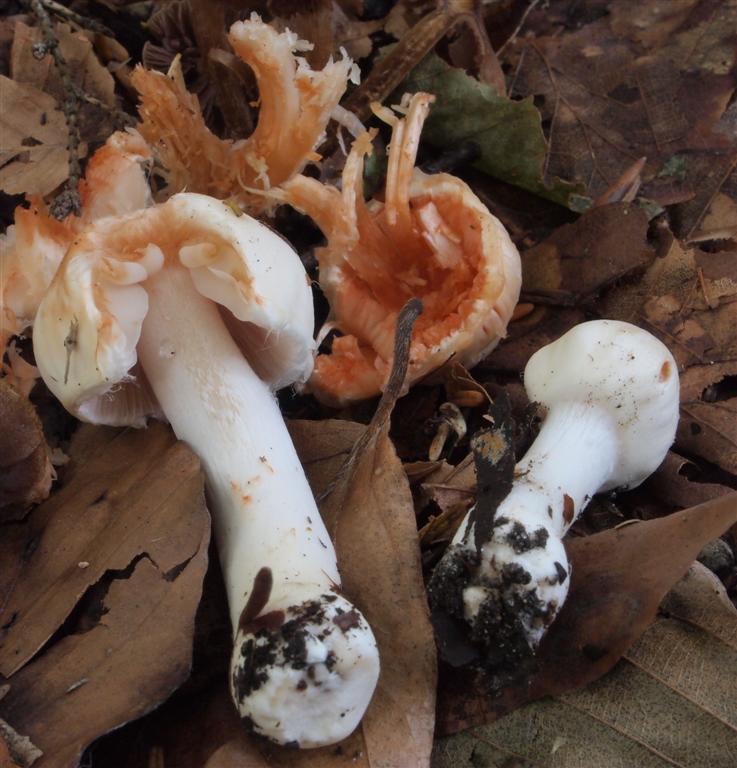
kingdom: Fungi
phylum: Basidiomycota
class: Agaricomycetes
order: Agaricales
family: Inocybaceae
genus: Inocybe
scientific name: Inocybe whitei
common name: Blushing fibrecap
